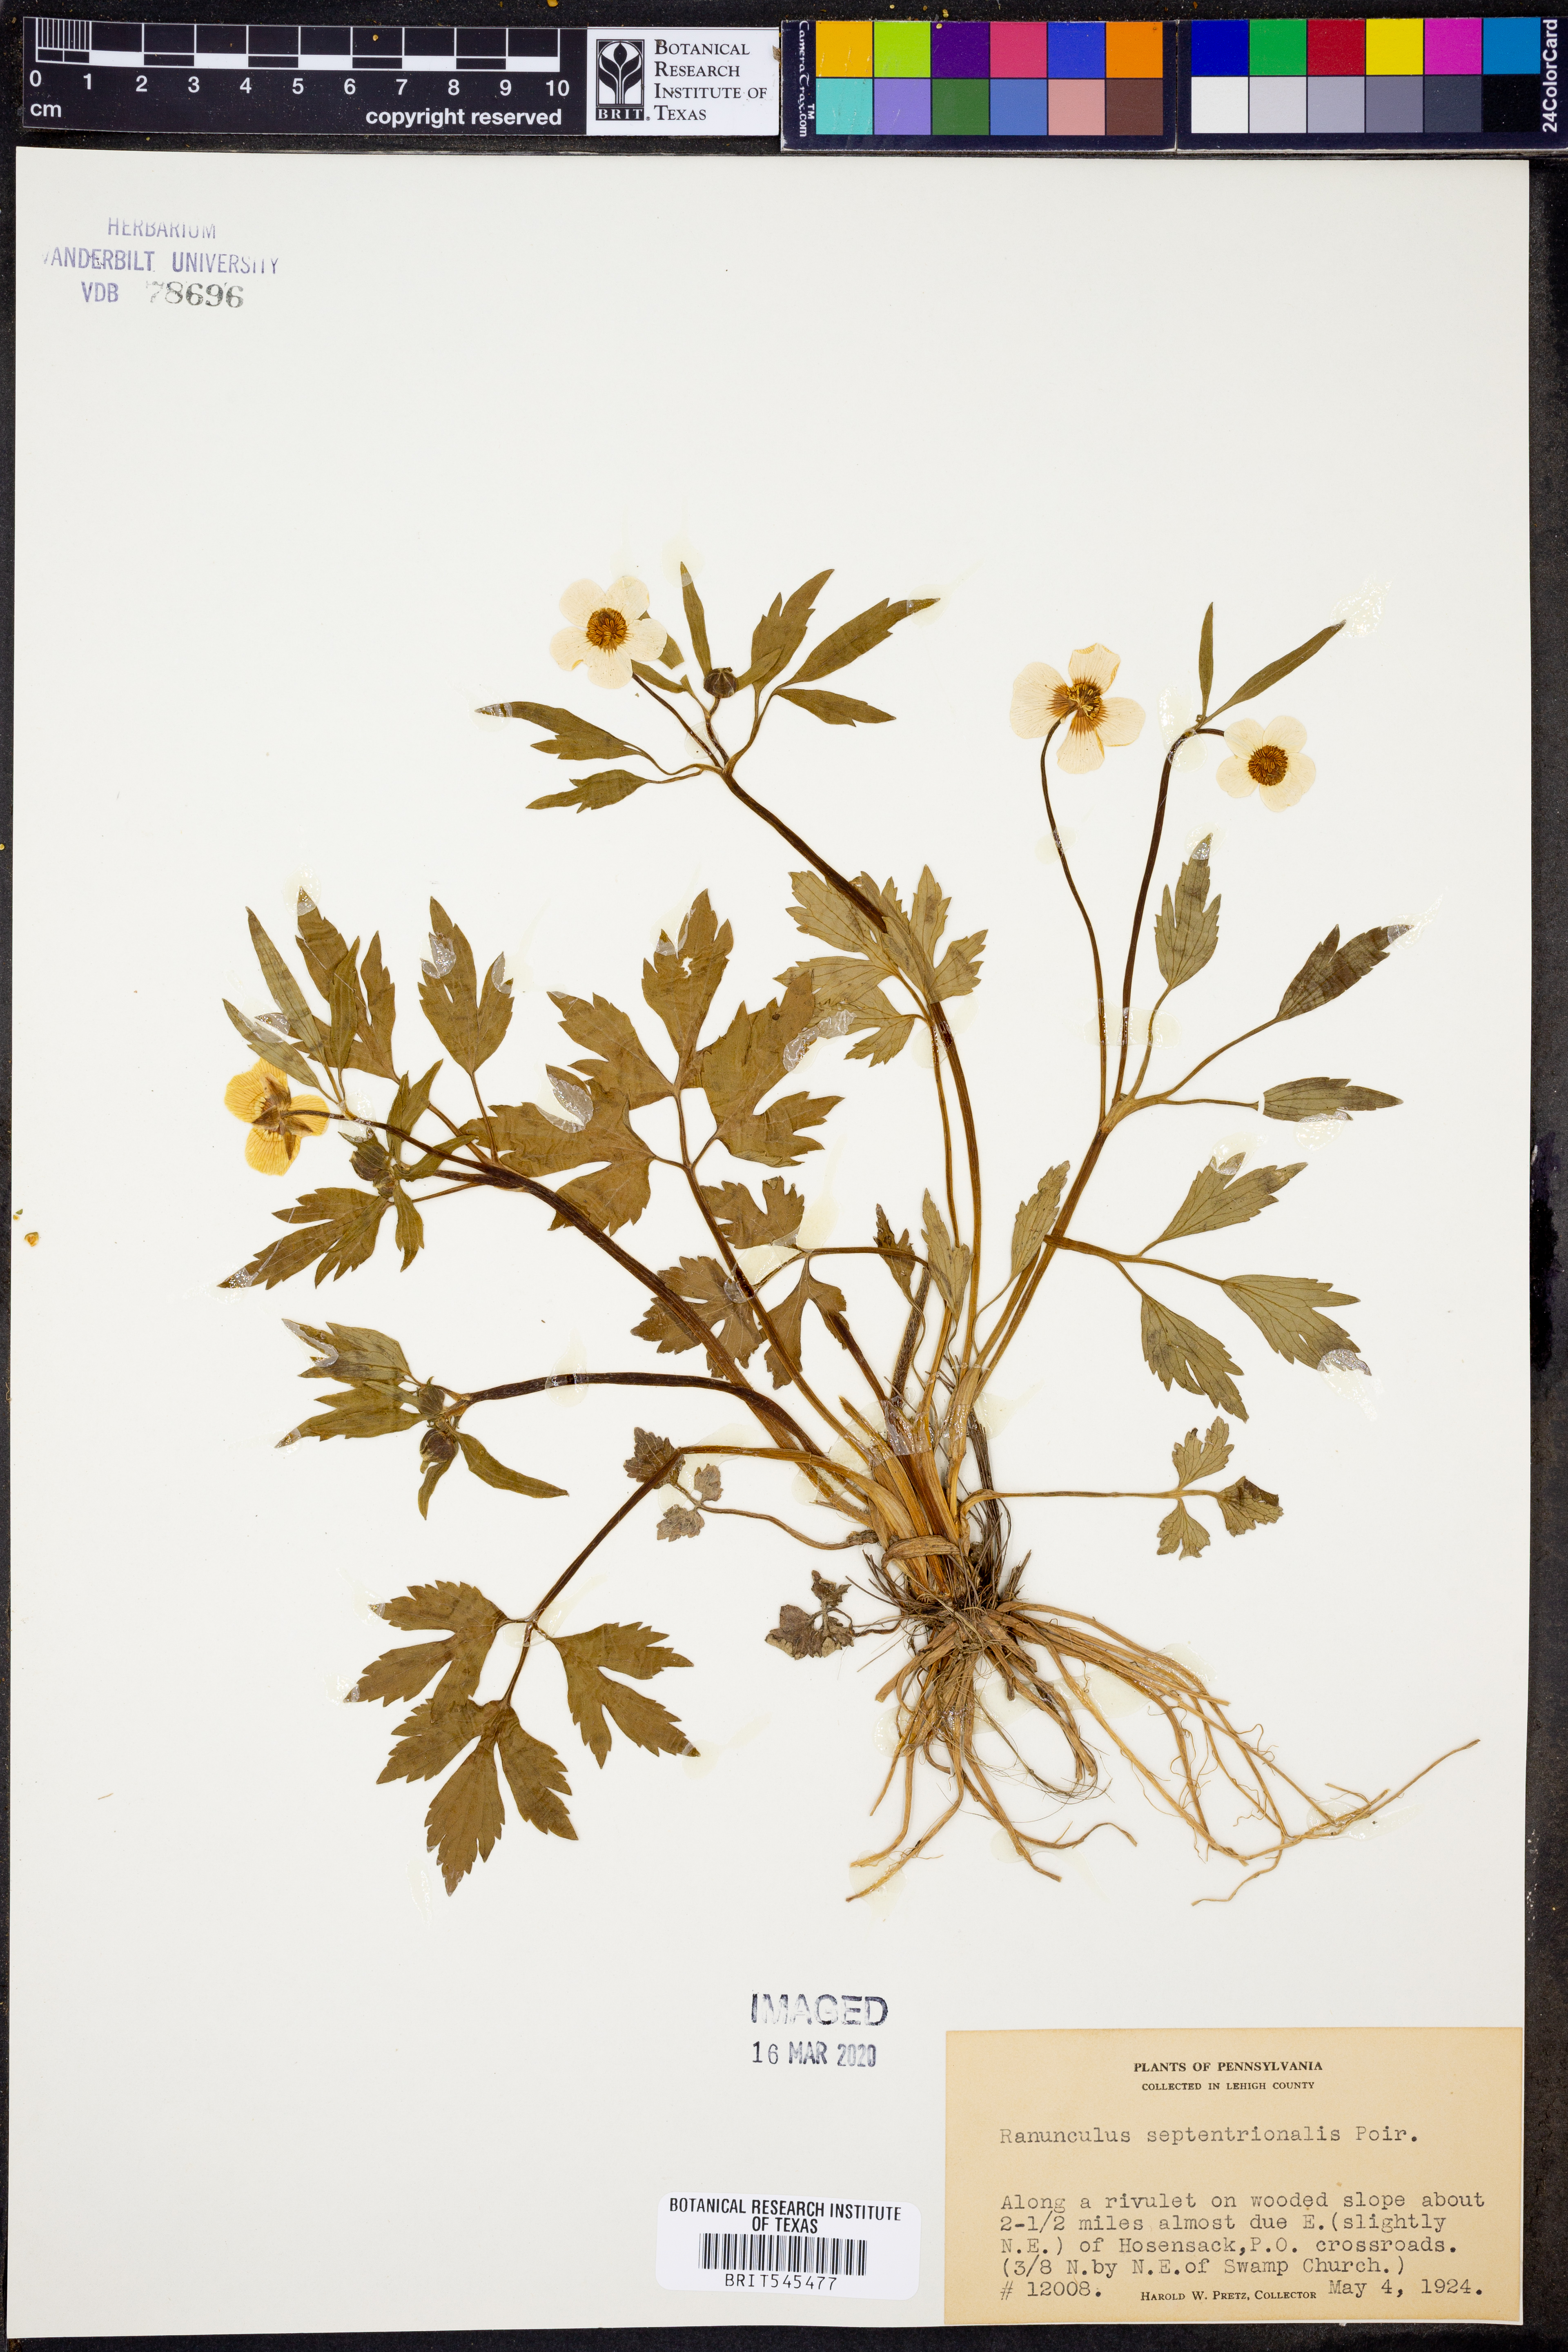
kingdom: Plantae
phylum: Tracheophyta
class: Magnoliopsida
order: Ranunculales
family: Ranunculaceae
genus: Ranunculus
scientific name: Ranunculus hispidus
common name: Bristly buttercup
